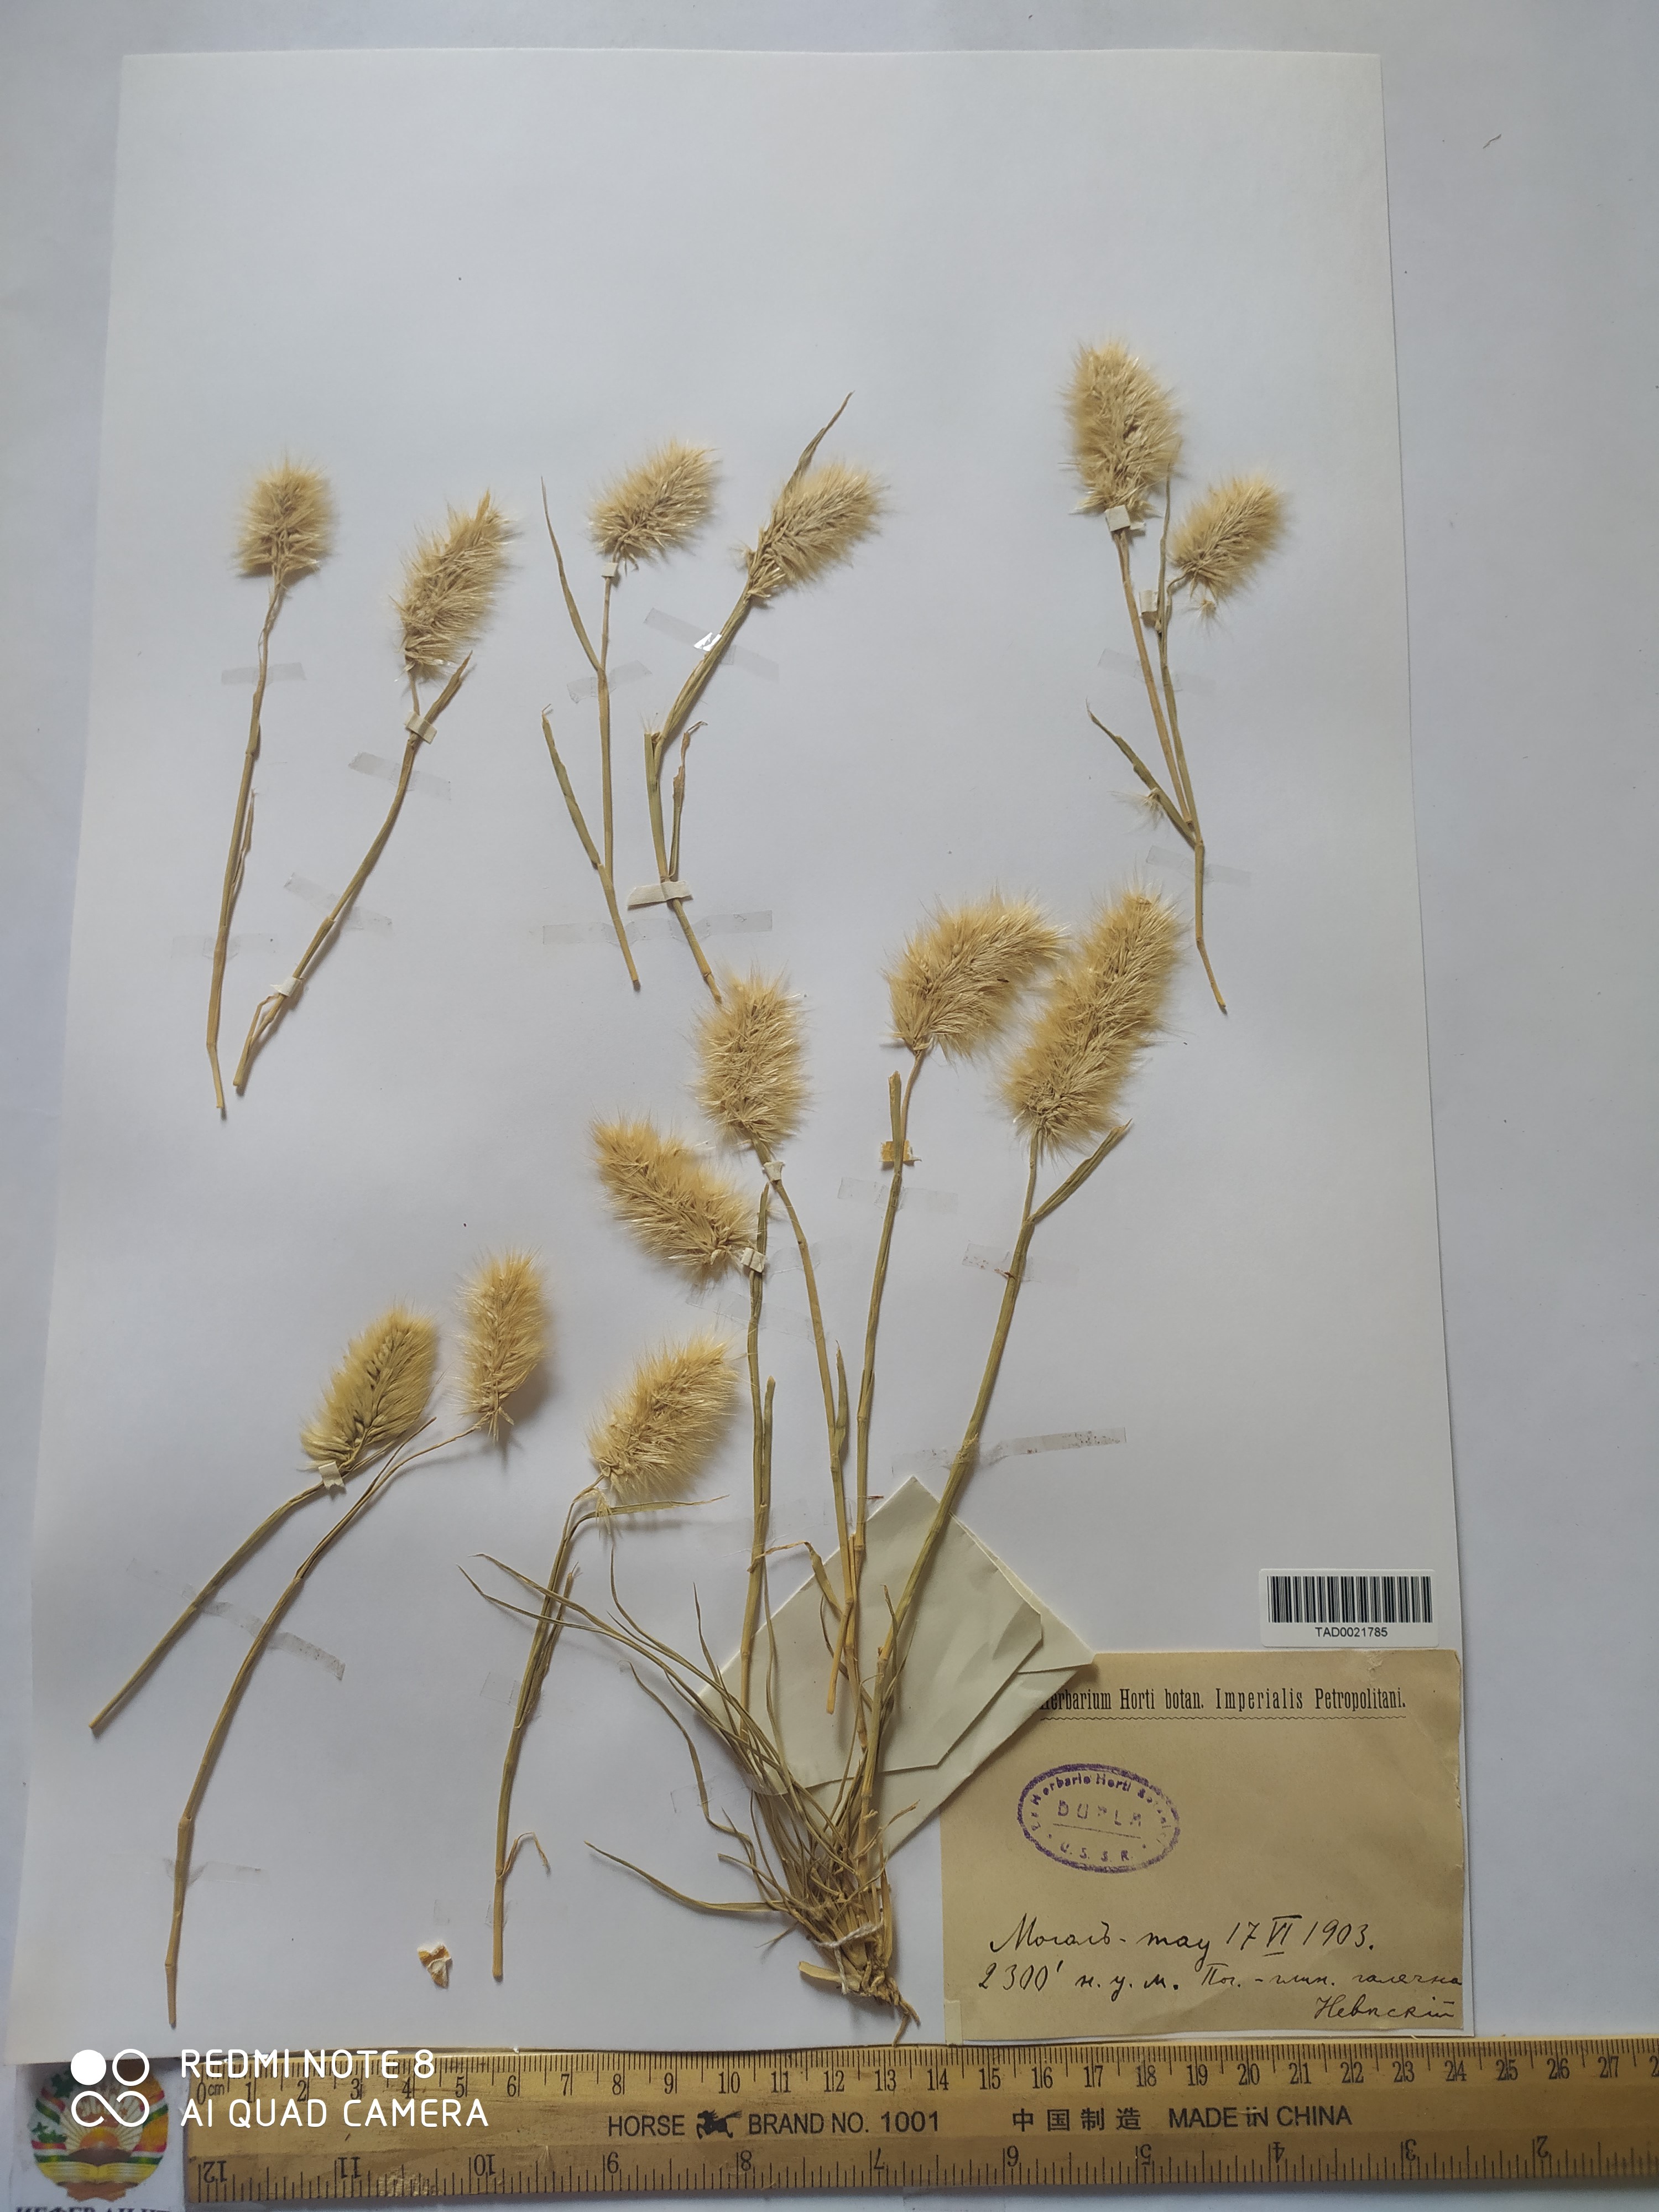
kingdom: Plantae
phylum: Tracheophyta
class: Liliopsida
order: Poales
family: Poaceae
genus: Enneapogon
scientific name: Enneapogon persicus
